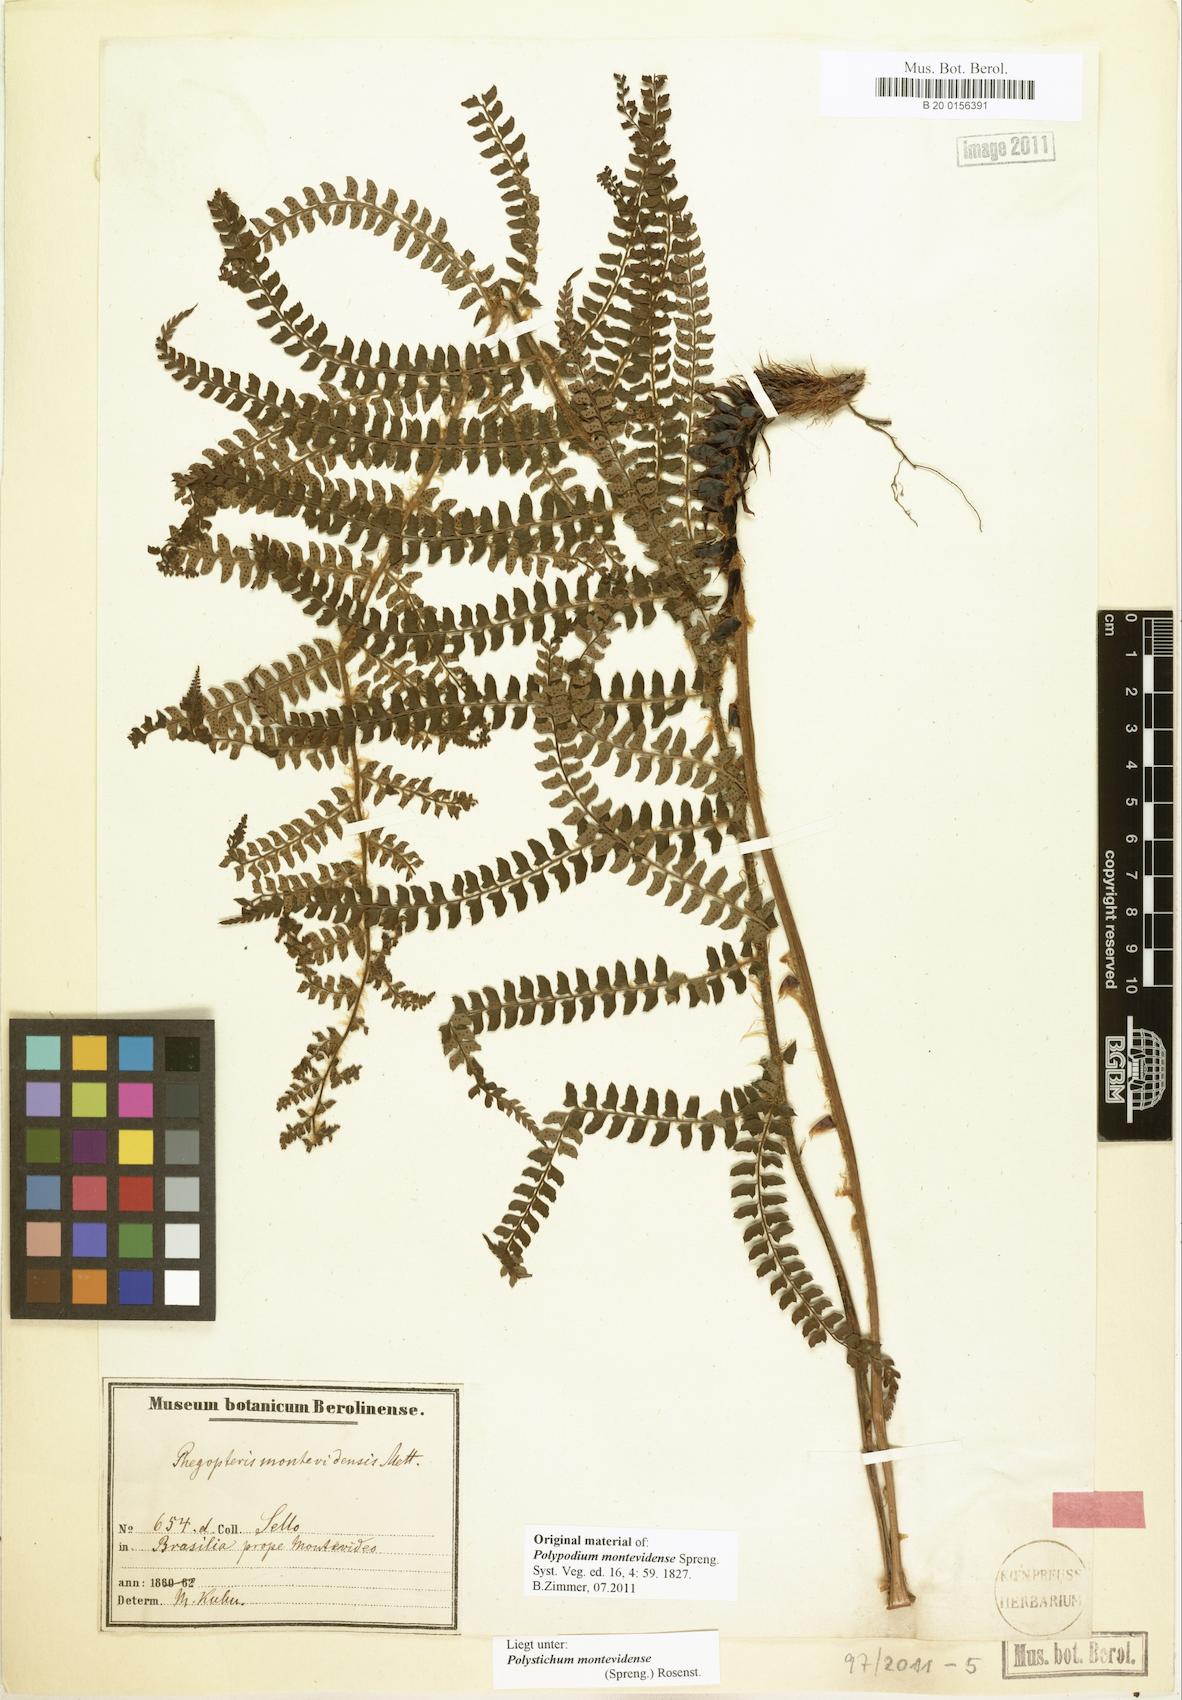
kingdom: Plantae
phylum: Tracheophyta
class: Polypodiopsida
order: Polypodiales
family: Dryopteridaceae
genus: Polystichum
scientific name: Polystichum montevidense
